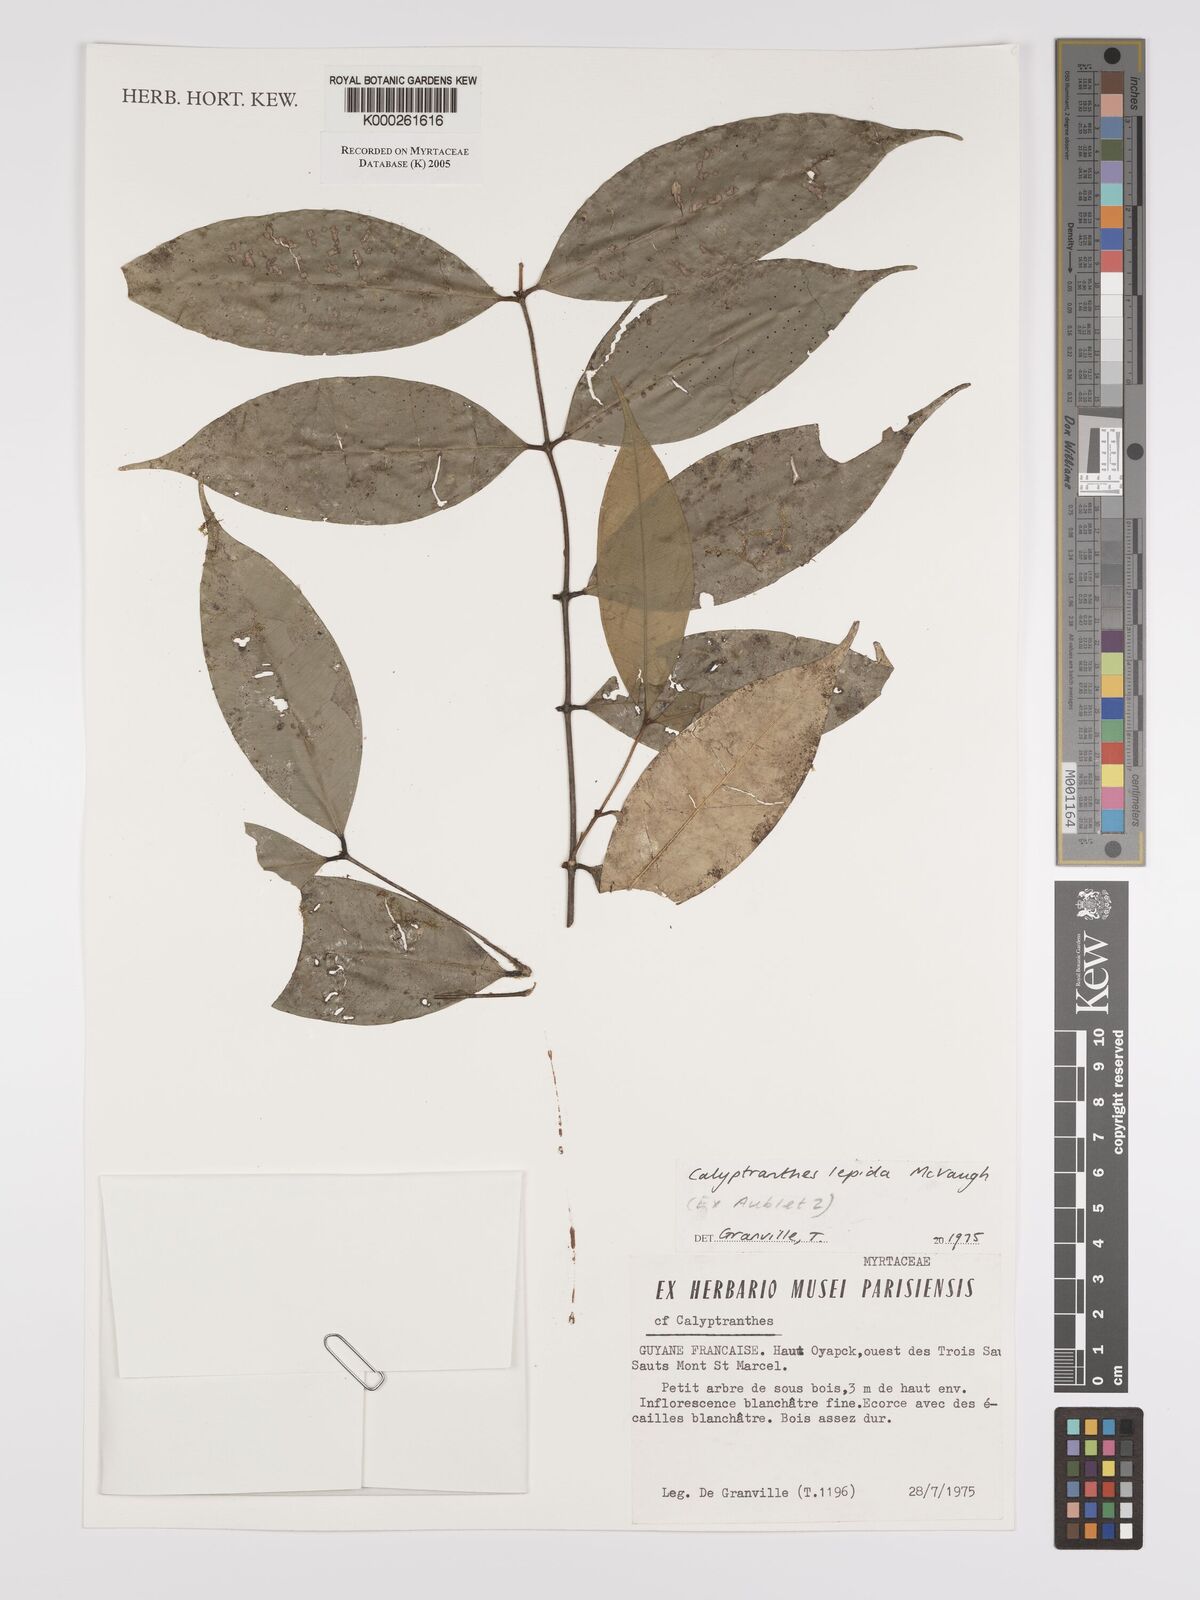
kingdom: Plantae
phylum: Tracheophyta
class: Magnoliopsida
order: Myrtales
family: Myrtaceae
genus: Myrcia
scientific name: Myrcia lepida
